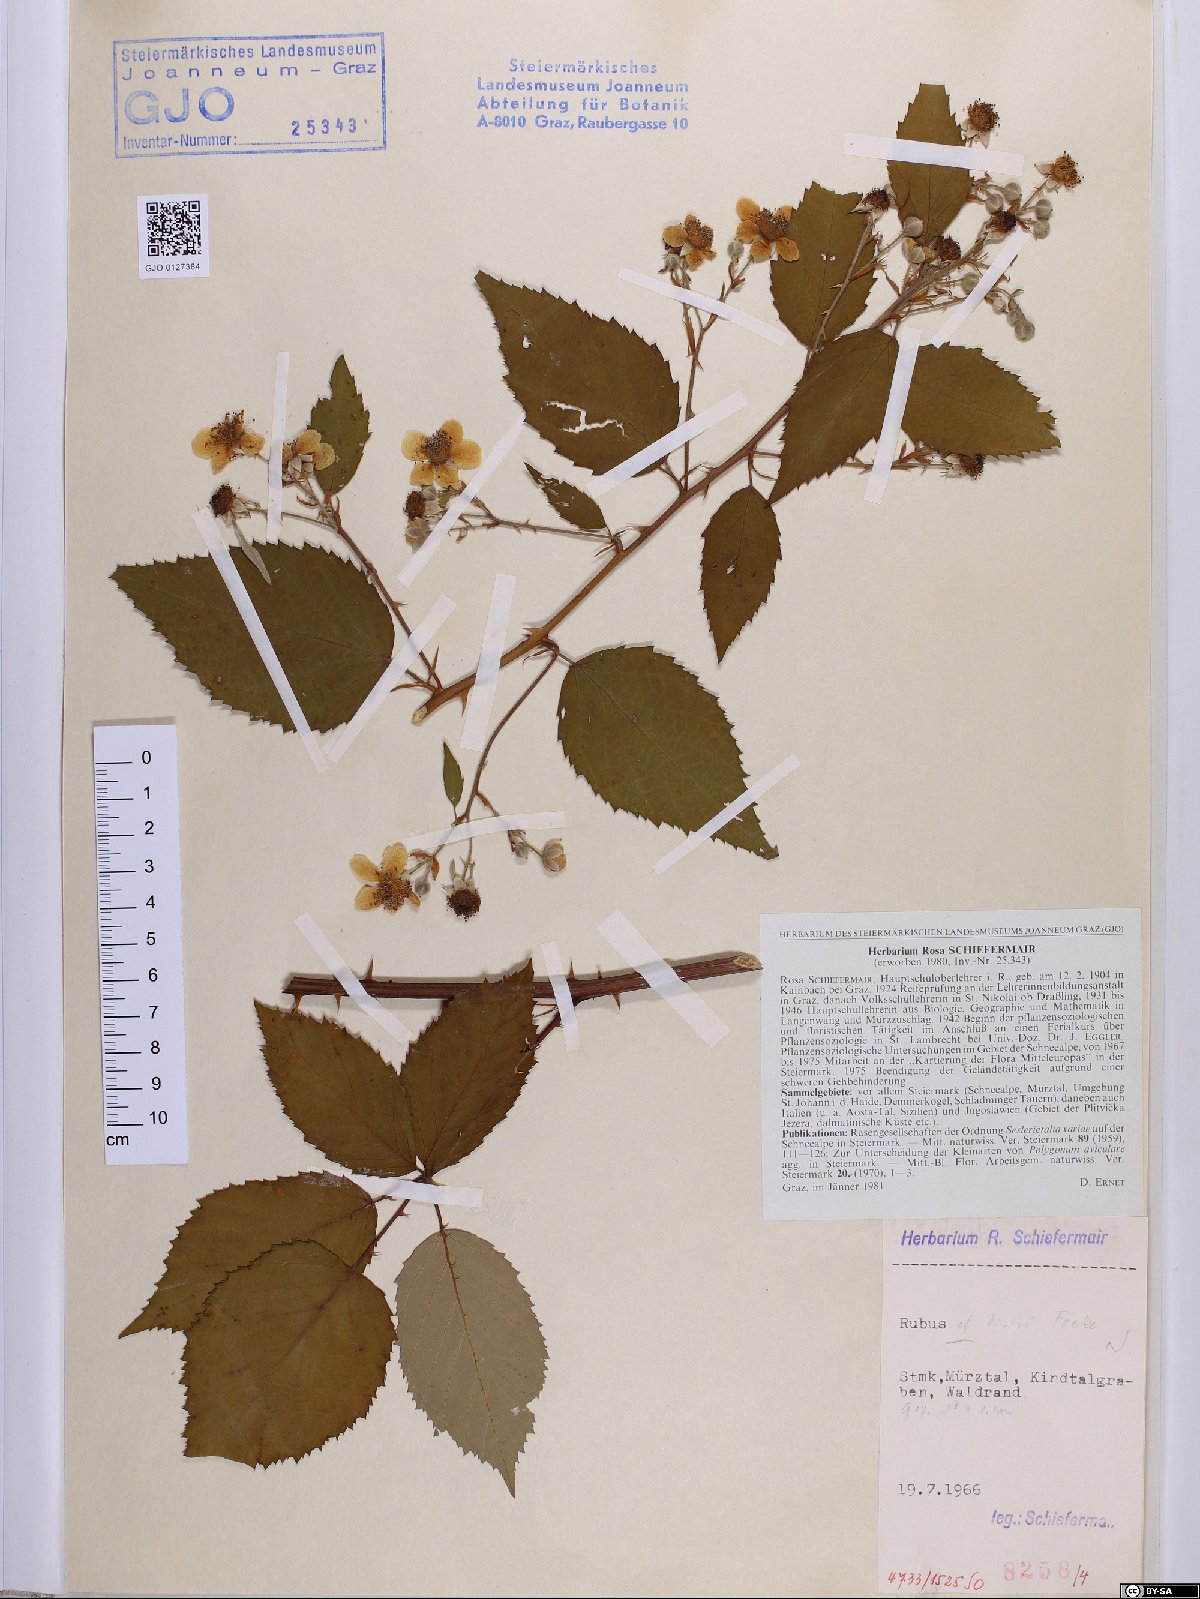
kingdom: Plantae
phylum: Tracheophyta
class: Magnoliopsida
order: Rosales
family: Rosaceae
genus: Rubus
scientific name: Rubus constrictus
